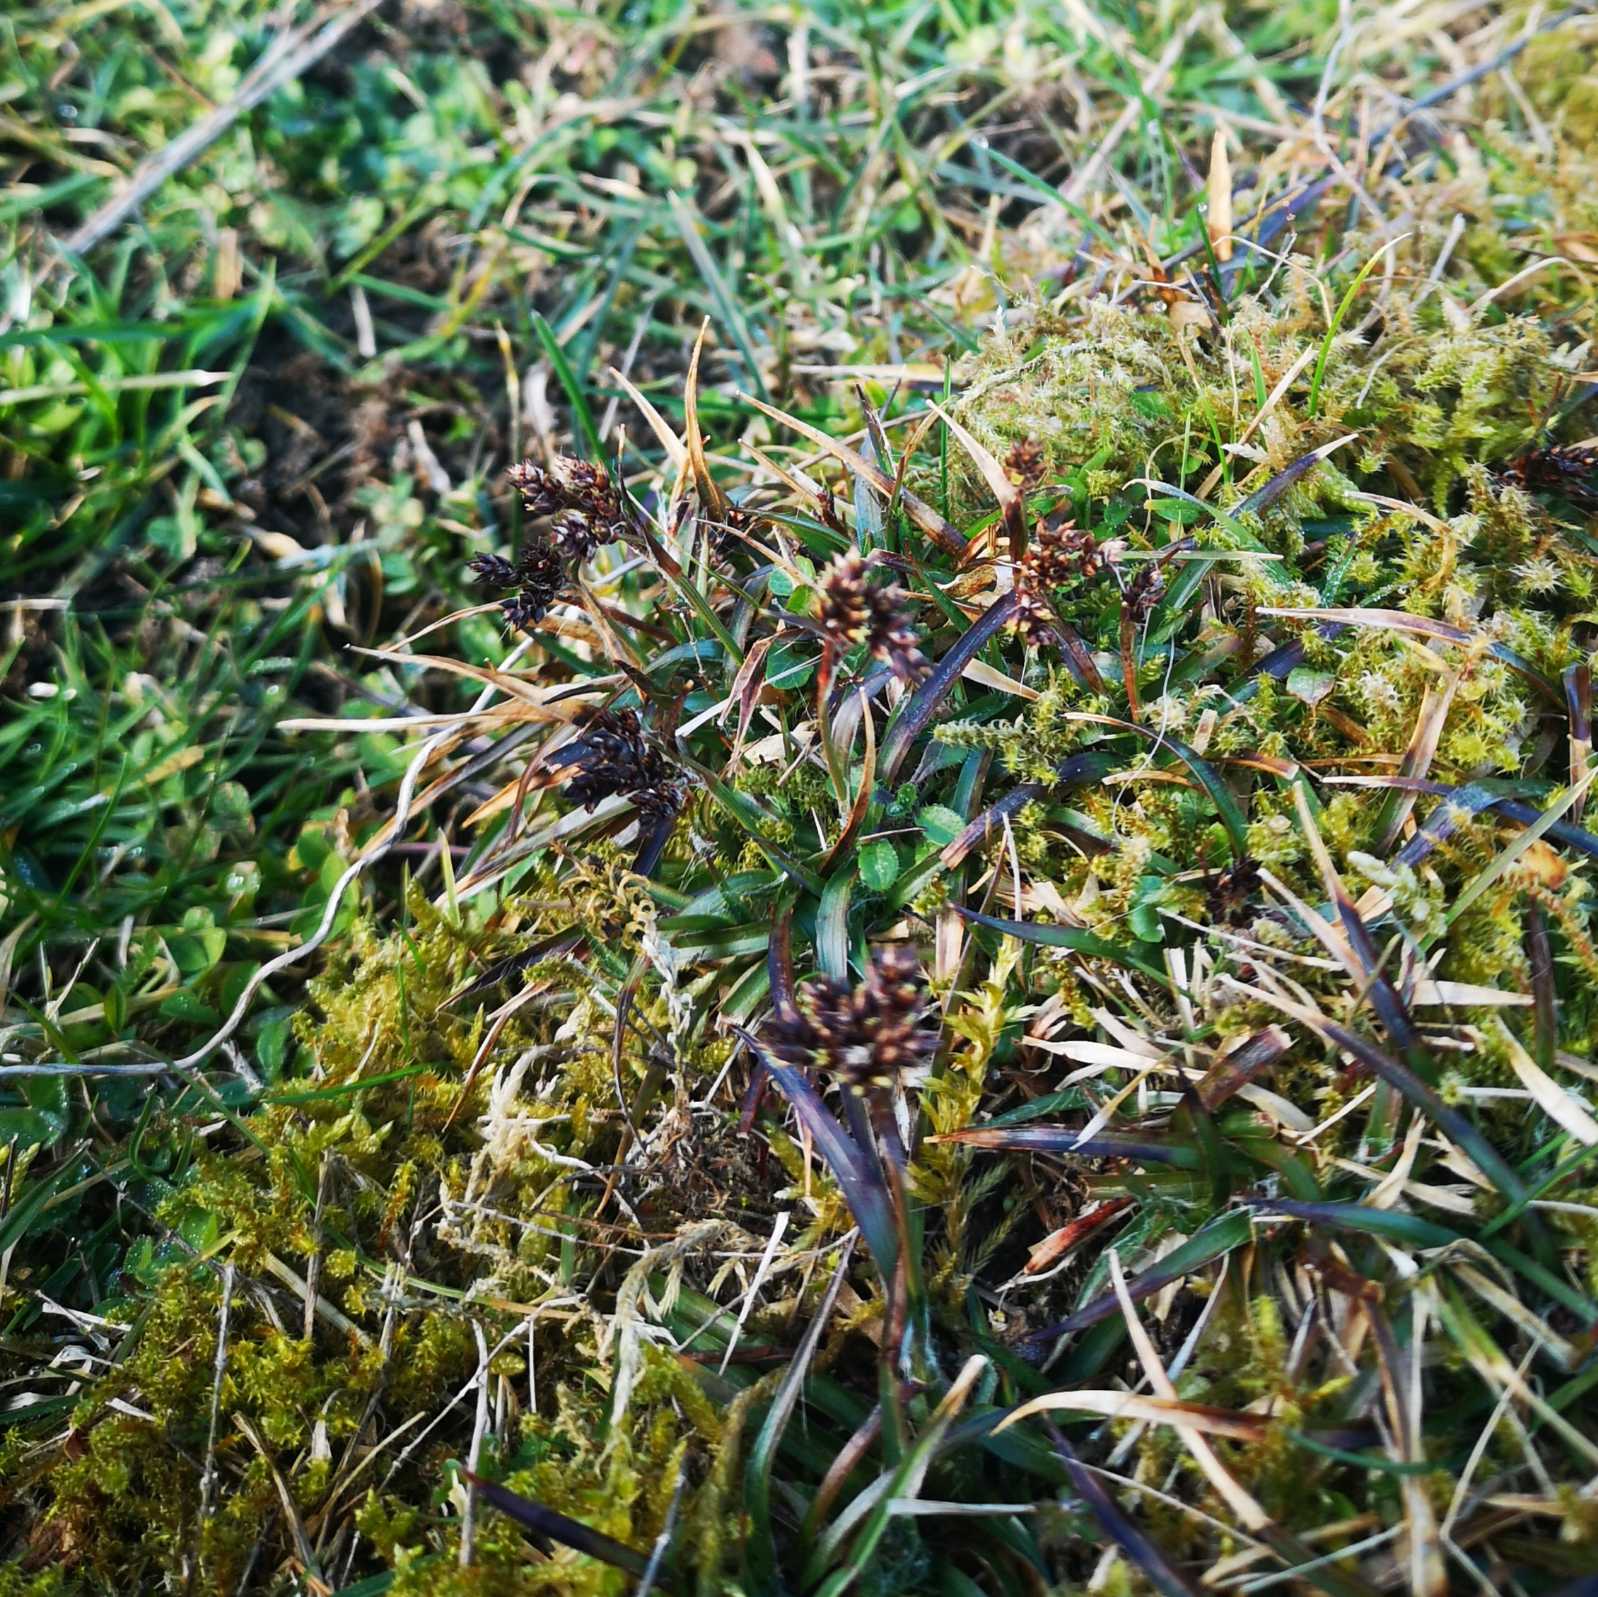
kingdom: Plantae
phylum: Tracheophyta
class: Liliopsida
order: Poales
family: Juncaceae
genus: Luzula
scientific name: Luzula campestris
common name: Mark-frytle
